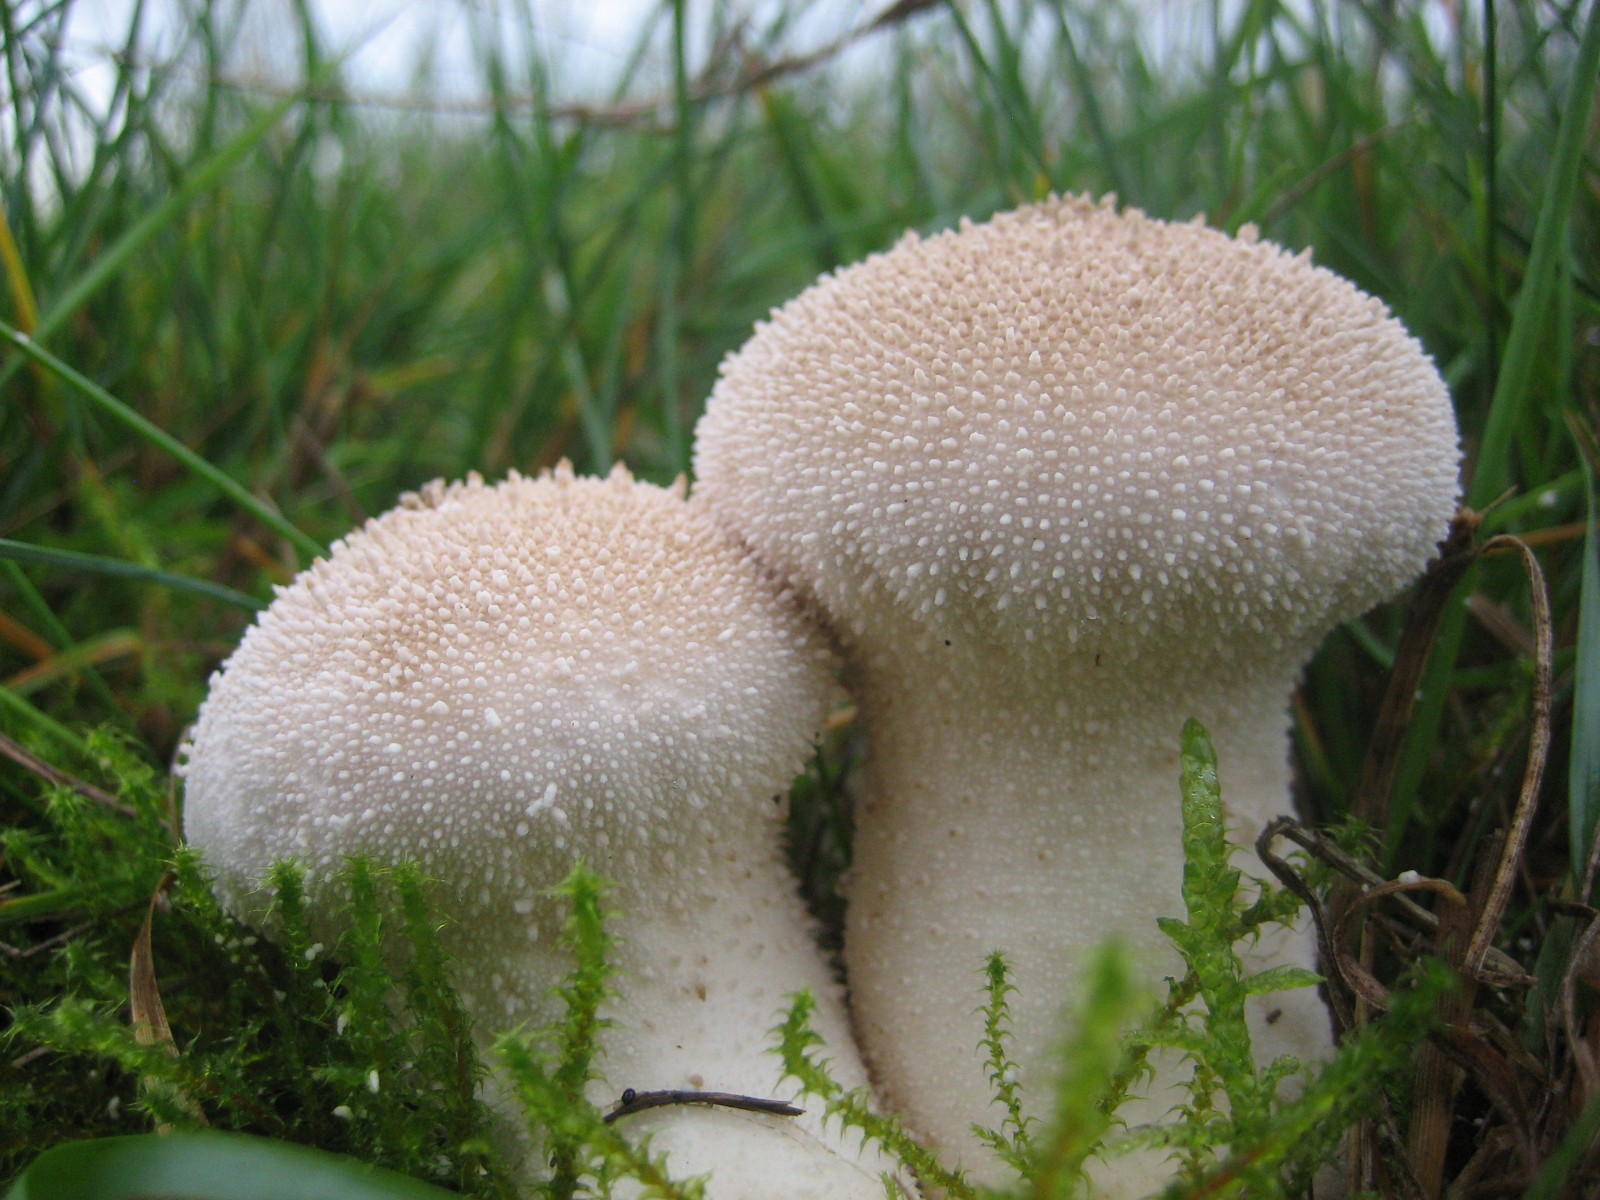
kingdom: Fungi
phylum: Basidiomycota
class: Agaricomycetes
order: Agaricales
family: Lycoperdaceae
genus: Lycoperdon
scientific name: Lycoperdon perlatum
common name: krystal-støvbold
